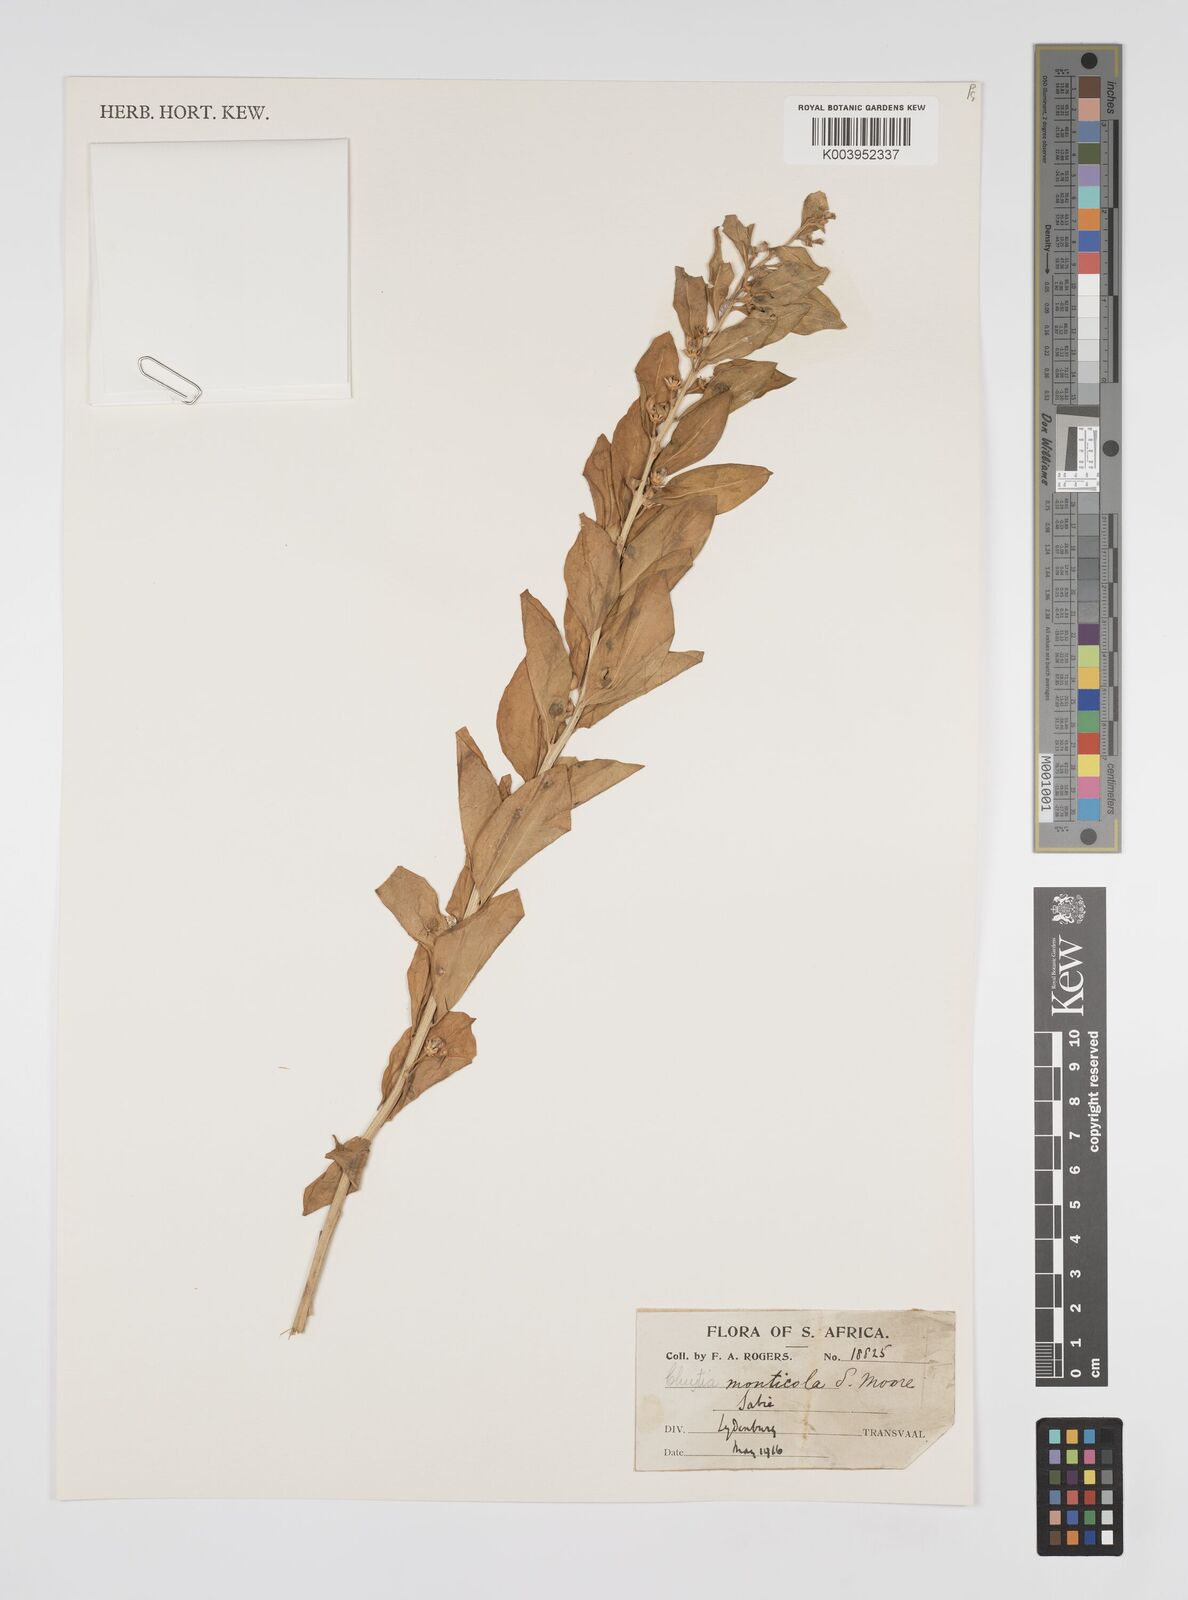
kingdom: Plantae
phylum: Tracheophyta
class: Magnoliopsida
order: Malpighiales
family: Peraceae
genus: Clutia
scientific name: Clutia monticola
